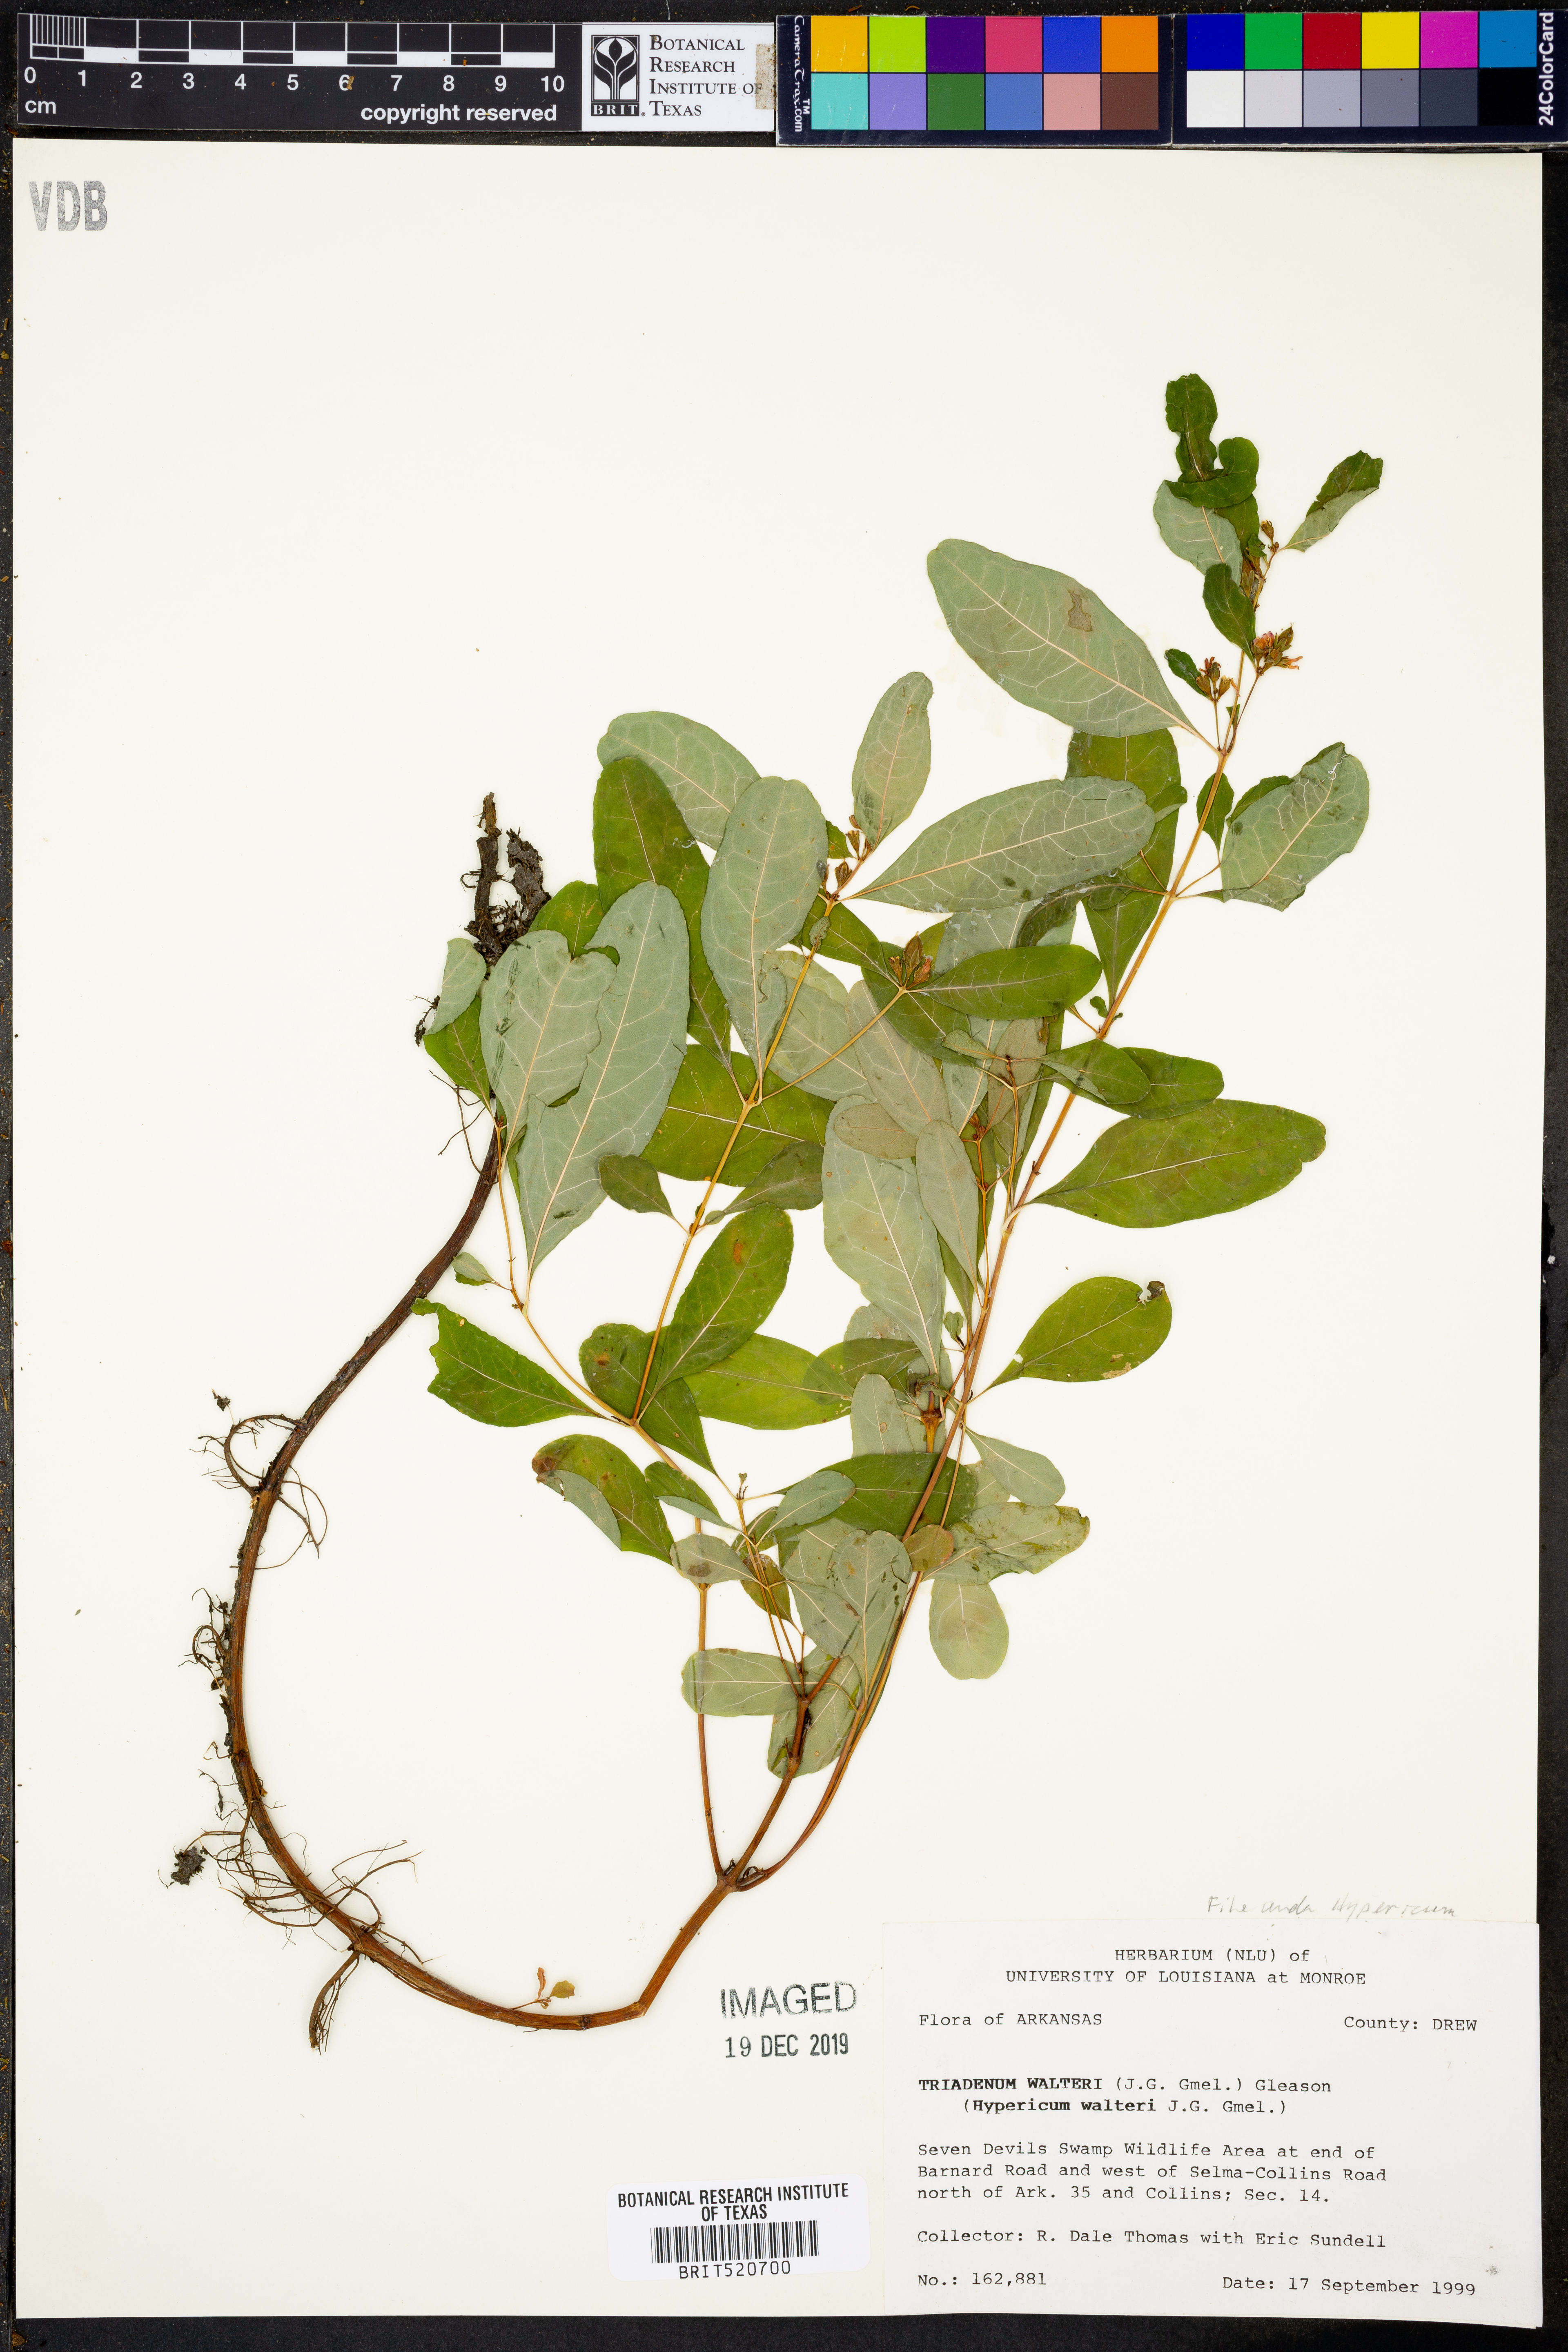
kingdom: Plantae
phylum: Tracheophyta
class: Magnoliopsida
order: Malpighiales
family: Hypericaceae
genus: Triadenum
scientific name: Triadenum walteri
